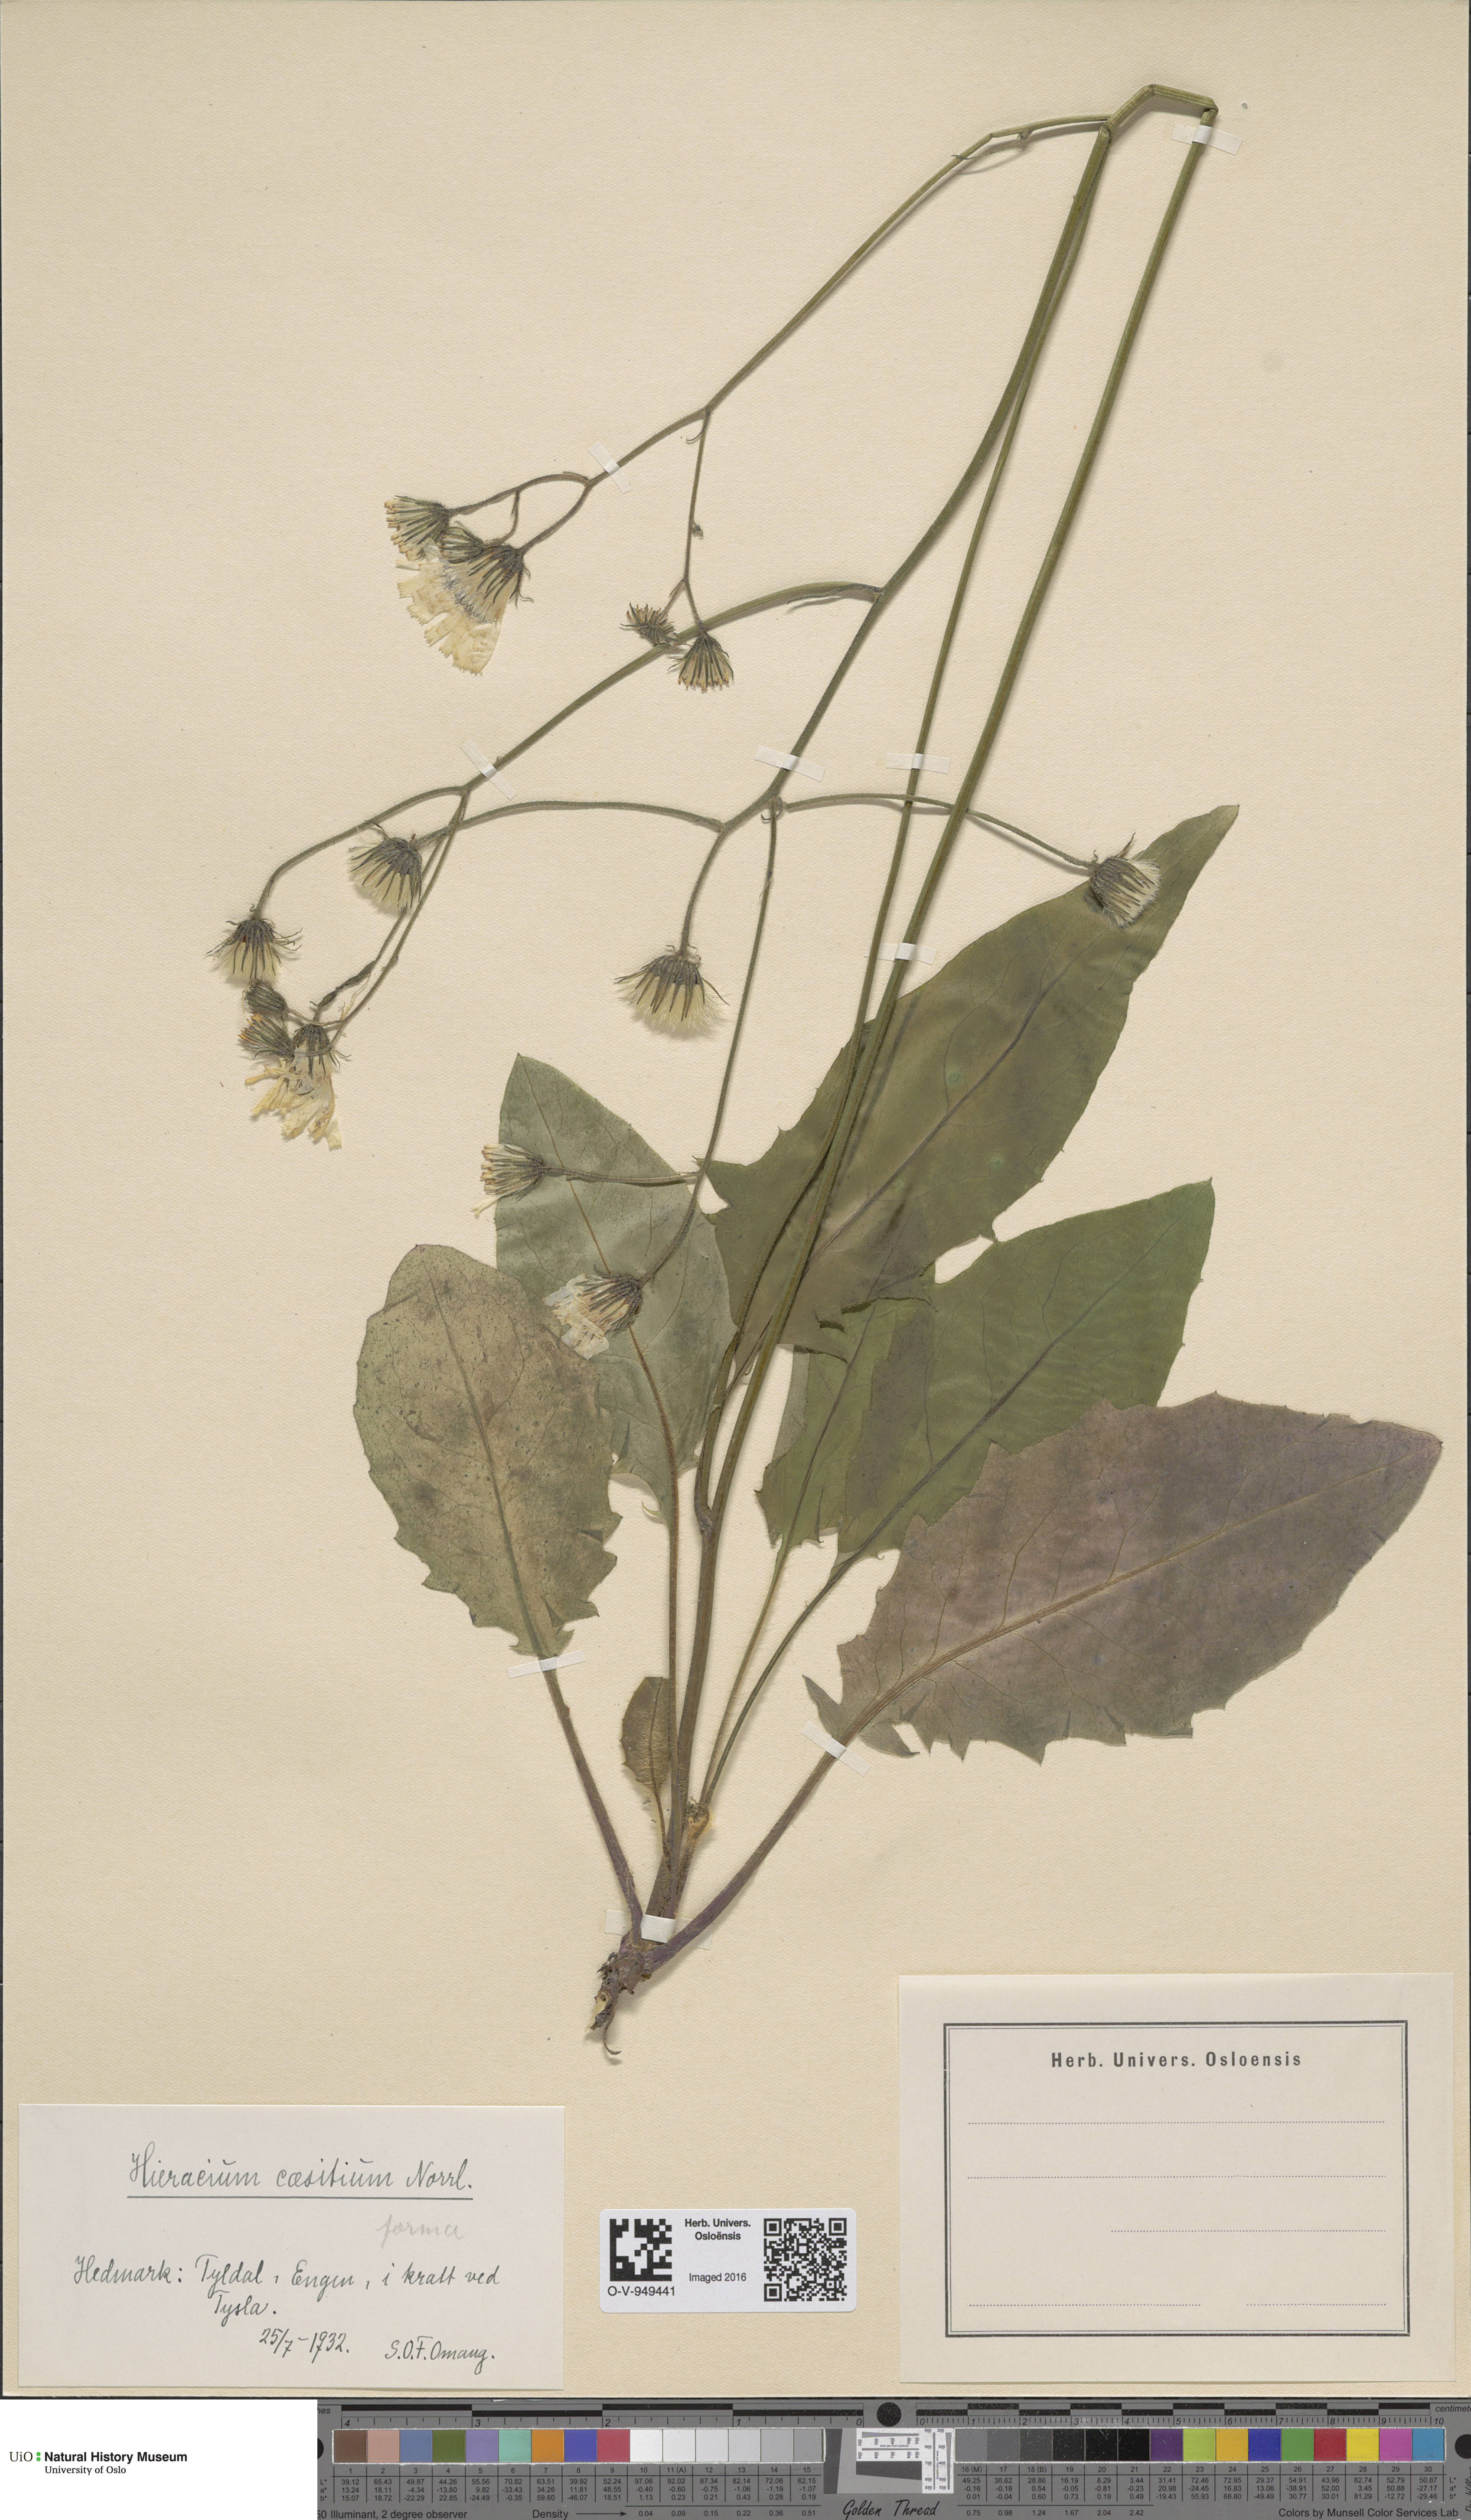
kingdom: Plantae
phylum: Tracheophyta
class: Magnoliopsida
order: Asterales
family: Asteraceae
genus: Hieracium
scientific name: Hieracium christianense
